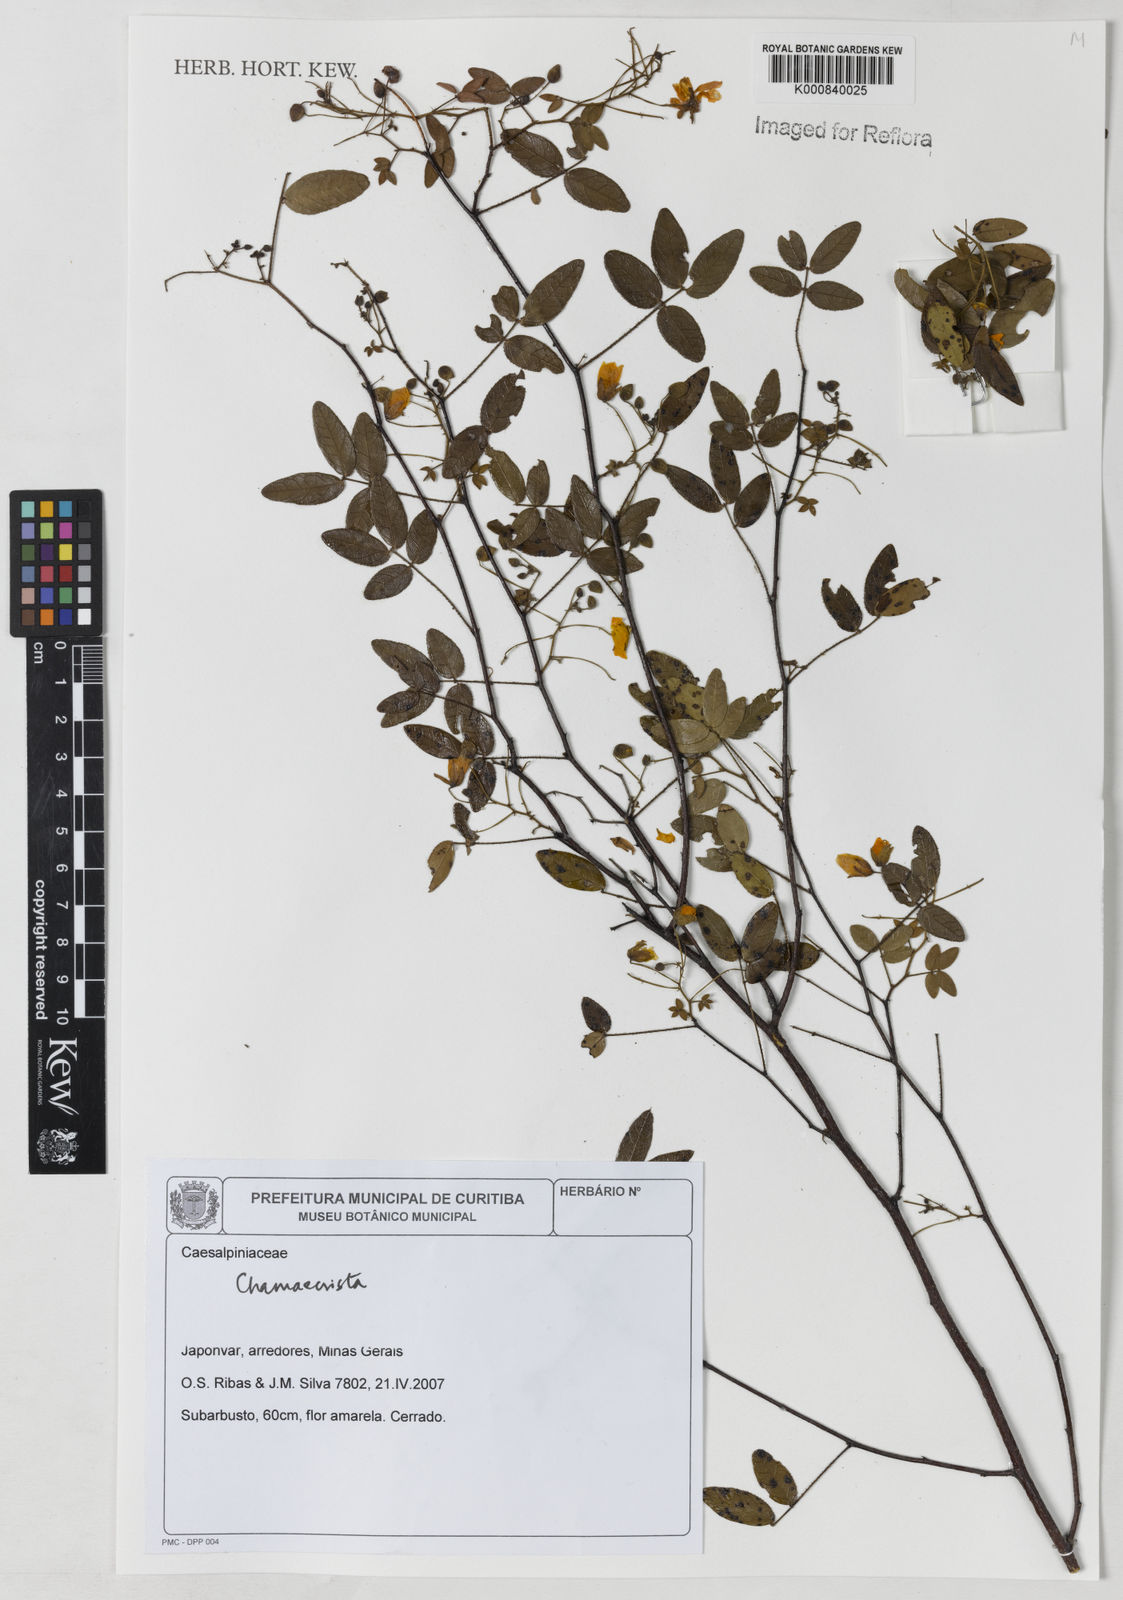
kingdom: Plantae
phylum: Tracheophyta
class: Magnoliopsida
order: Fabales
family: Fabaceae
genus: Chamaecrista
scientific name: Chamaecrista
